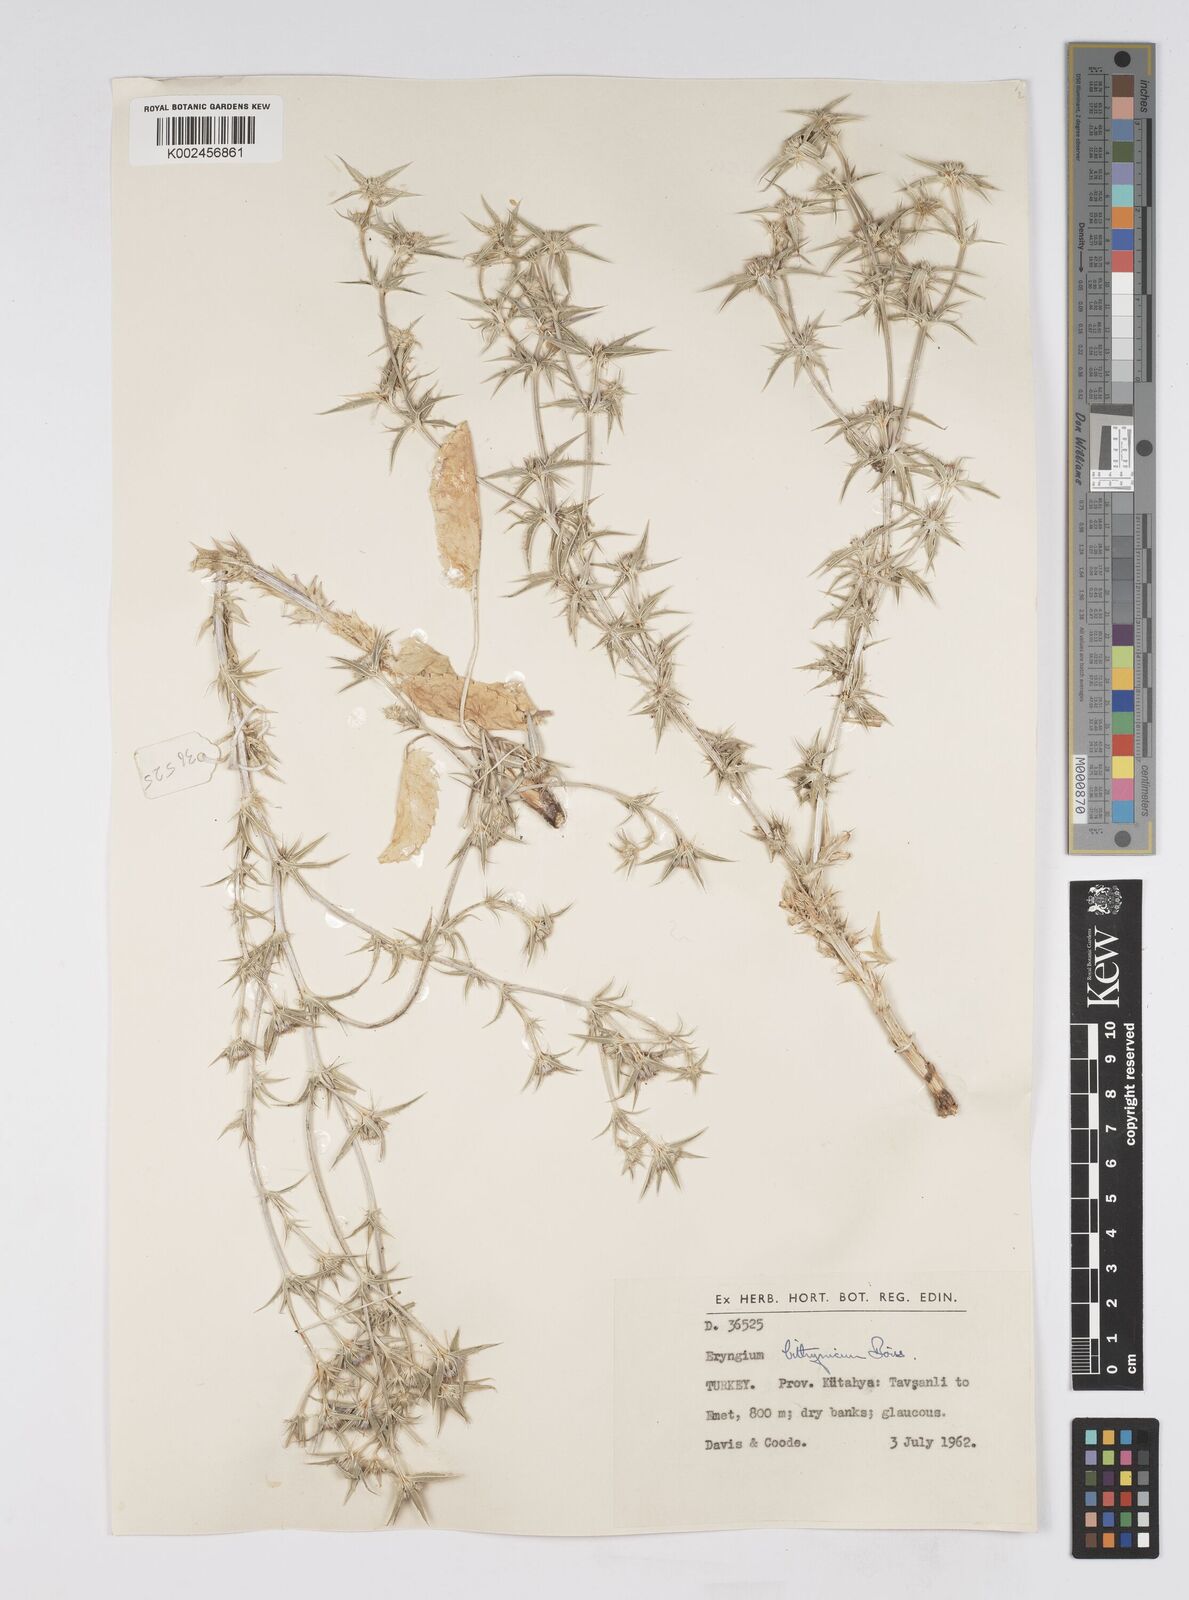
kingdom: Plantae
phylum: Tracheophyta
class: Magnoliopsida
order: Apiales
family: Apiaceae
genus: Eryngium
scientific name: Eryngium bithynicum
